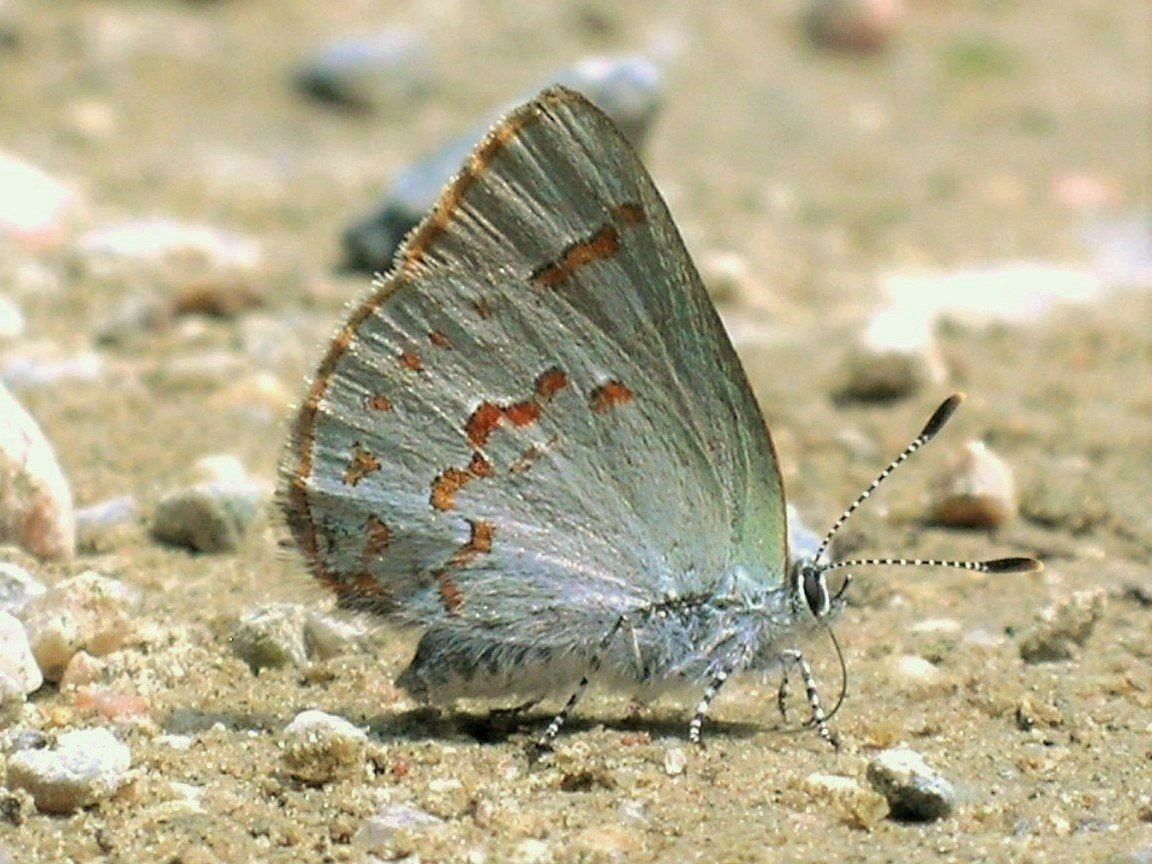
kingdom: Animalia
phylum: Arthropoda
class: Insecta
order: Lepidoptera
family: Lycaenidae
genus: Erora
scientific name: Erora laeta
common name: Early Hairstreak
